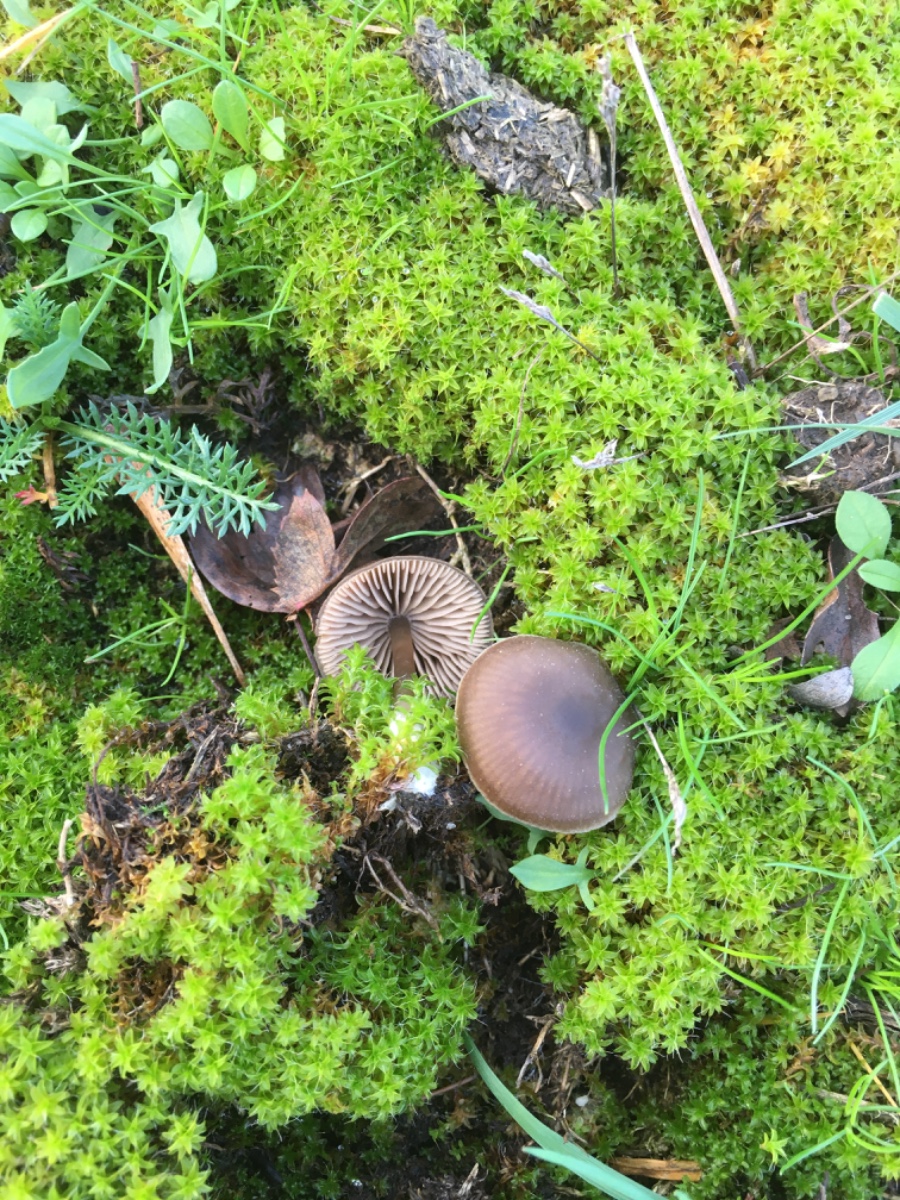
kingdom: Fungi
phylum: Basidiomycota
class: Agaricomycetes
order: Agaricales
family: Entolomataceae
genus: Entoloma
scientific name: Entoloma
